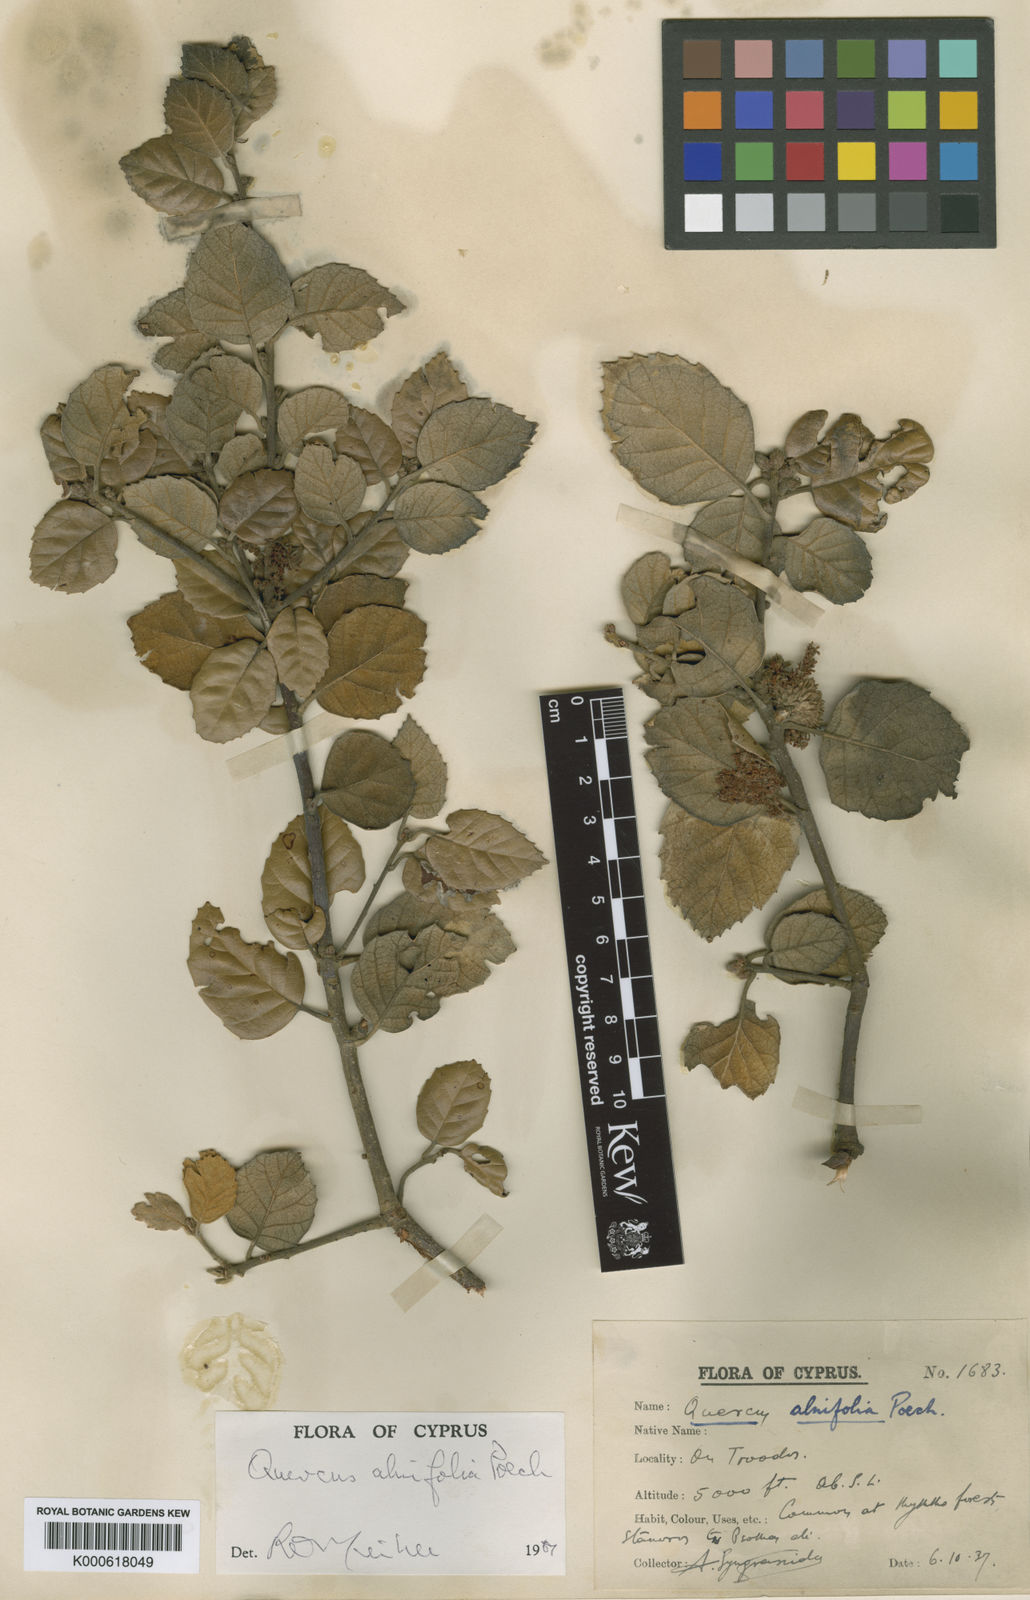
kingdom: Plantae
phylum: Tracheophyta
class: Magnoliopsida
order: Fagales
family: Fagaceae
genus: Quercus
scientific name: Quercus alnifolia
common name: Golden oak
